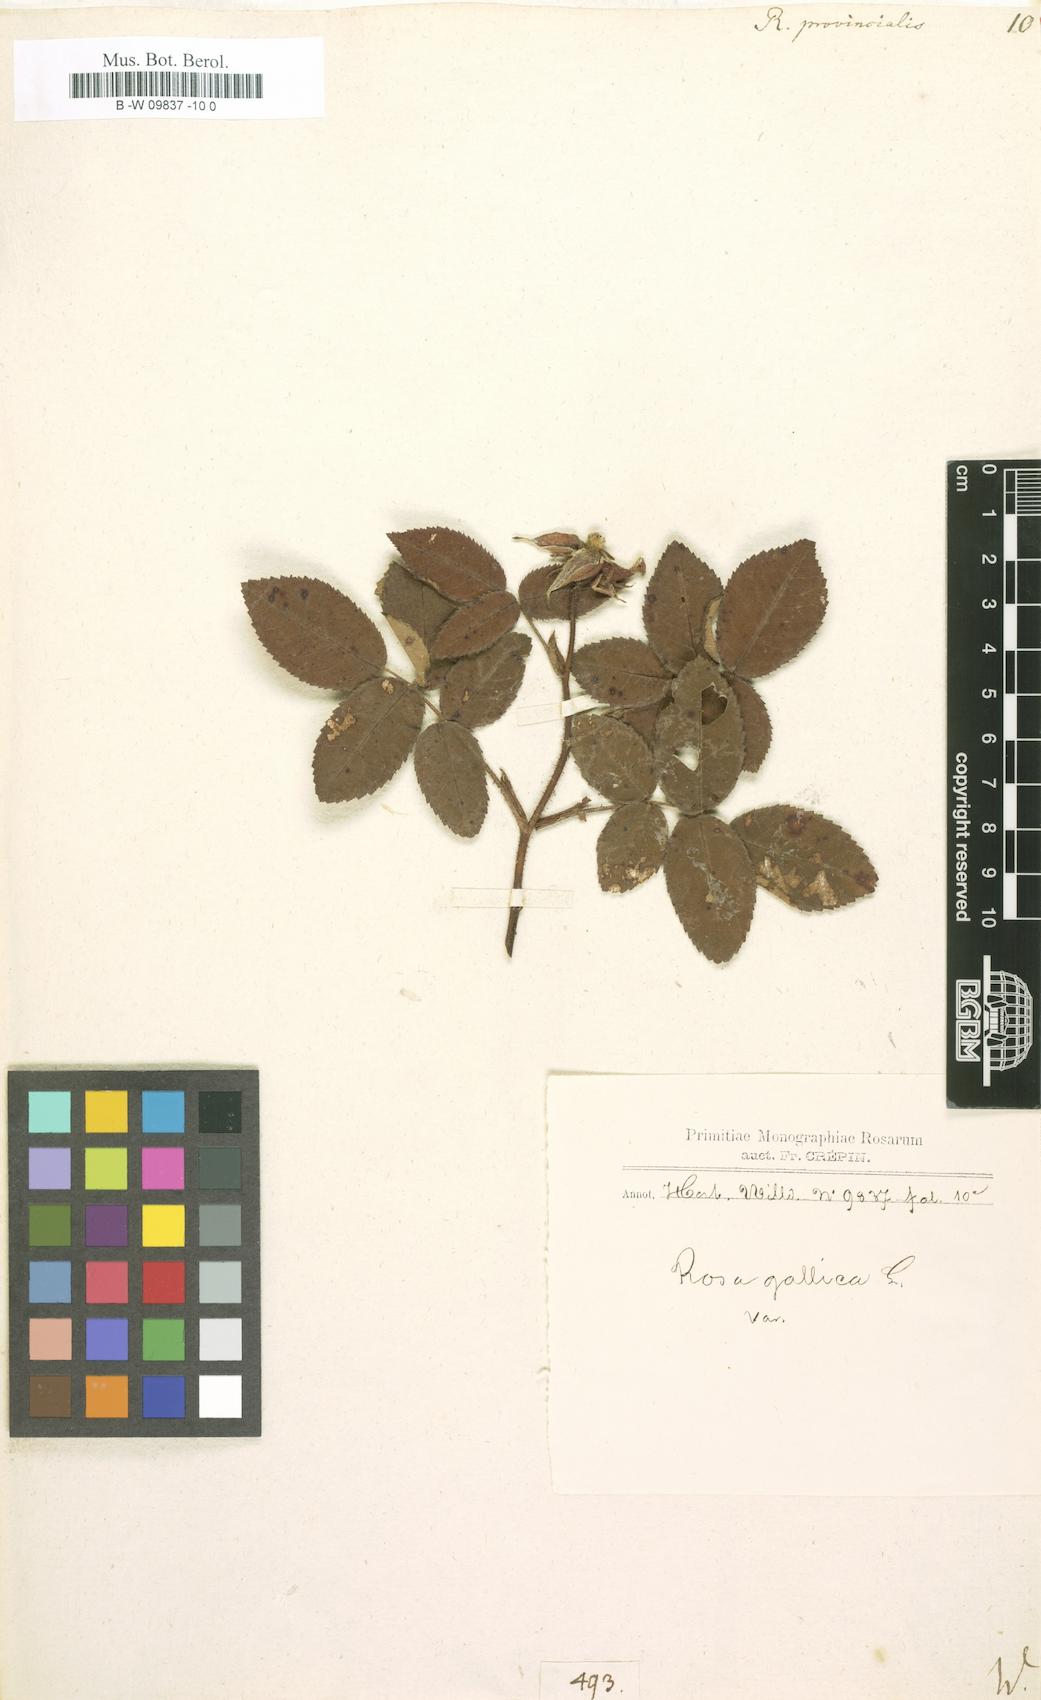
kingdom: Plantae
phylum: Tracheophyta
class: Magnoliopsida
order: Rosales
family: Rosaceae
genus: Rosa
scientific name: Rosa
